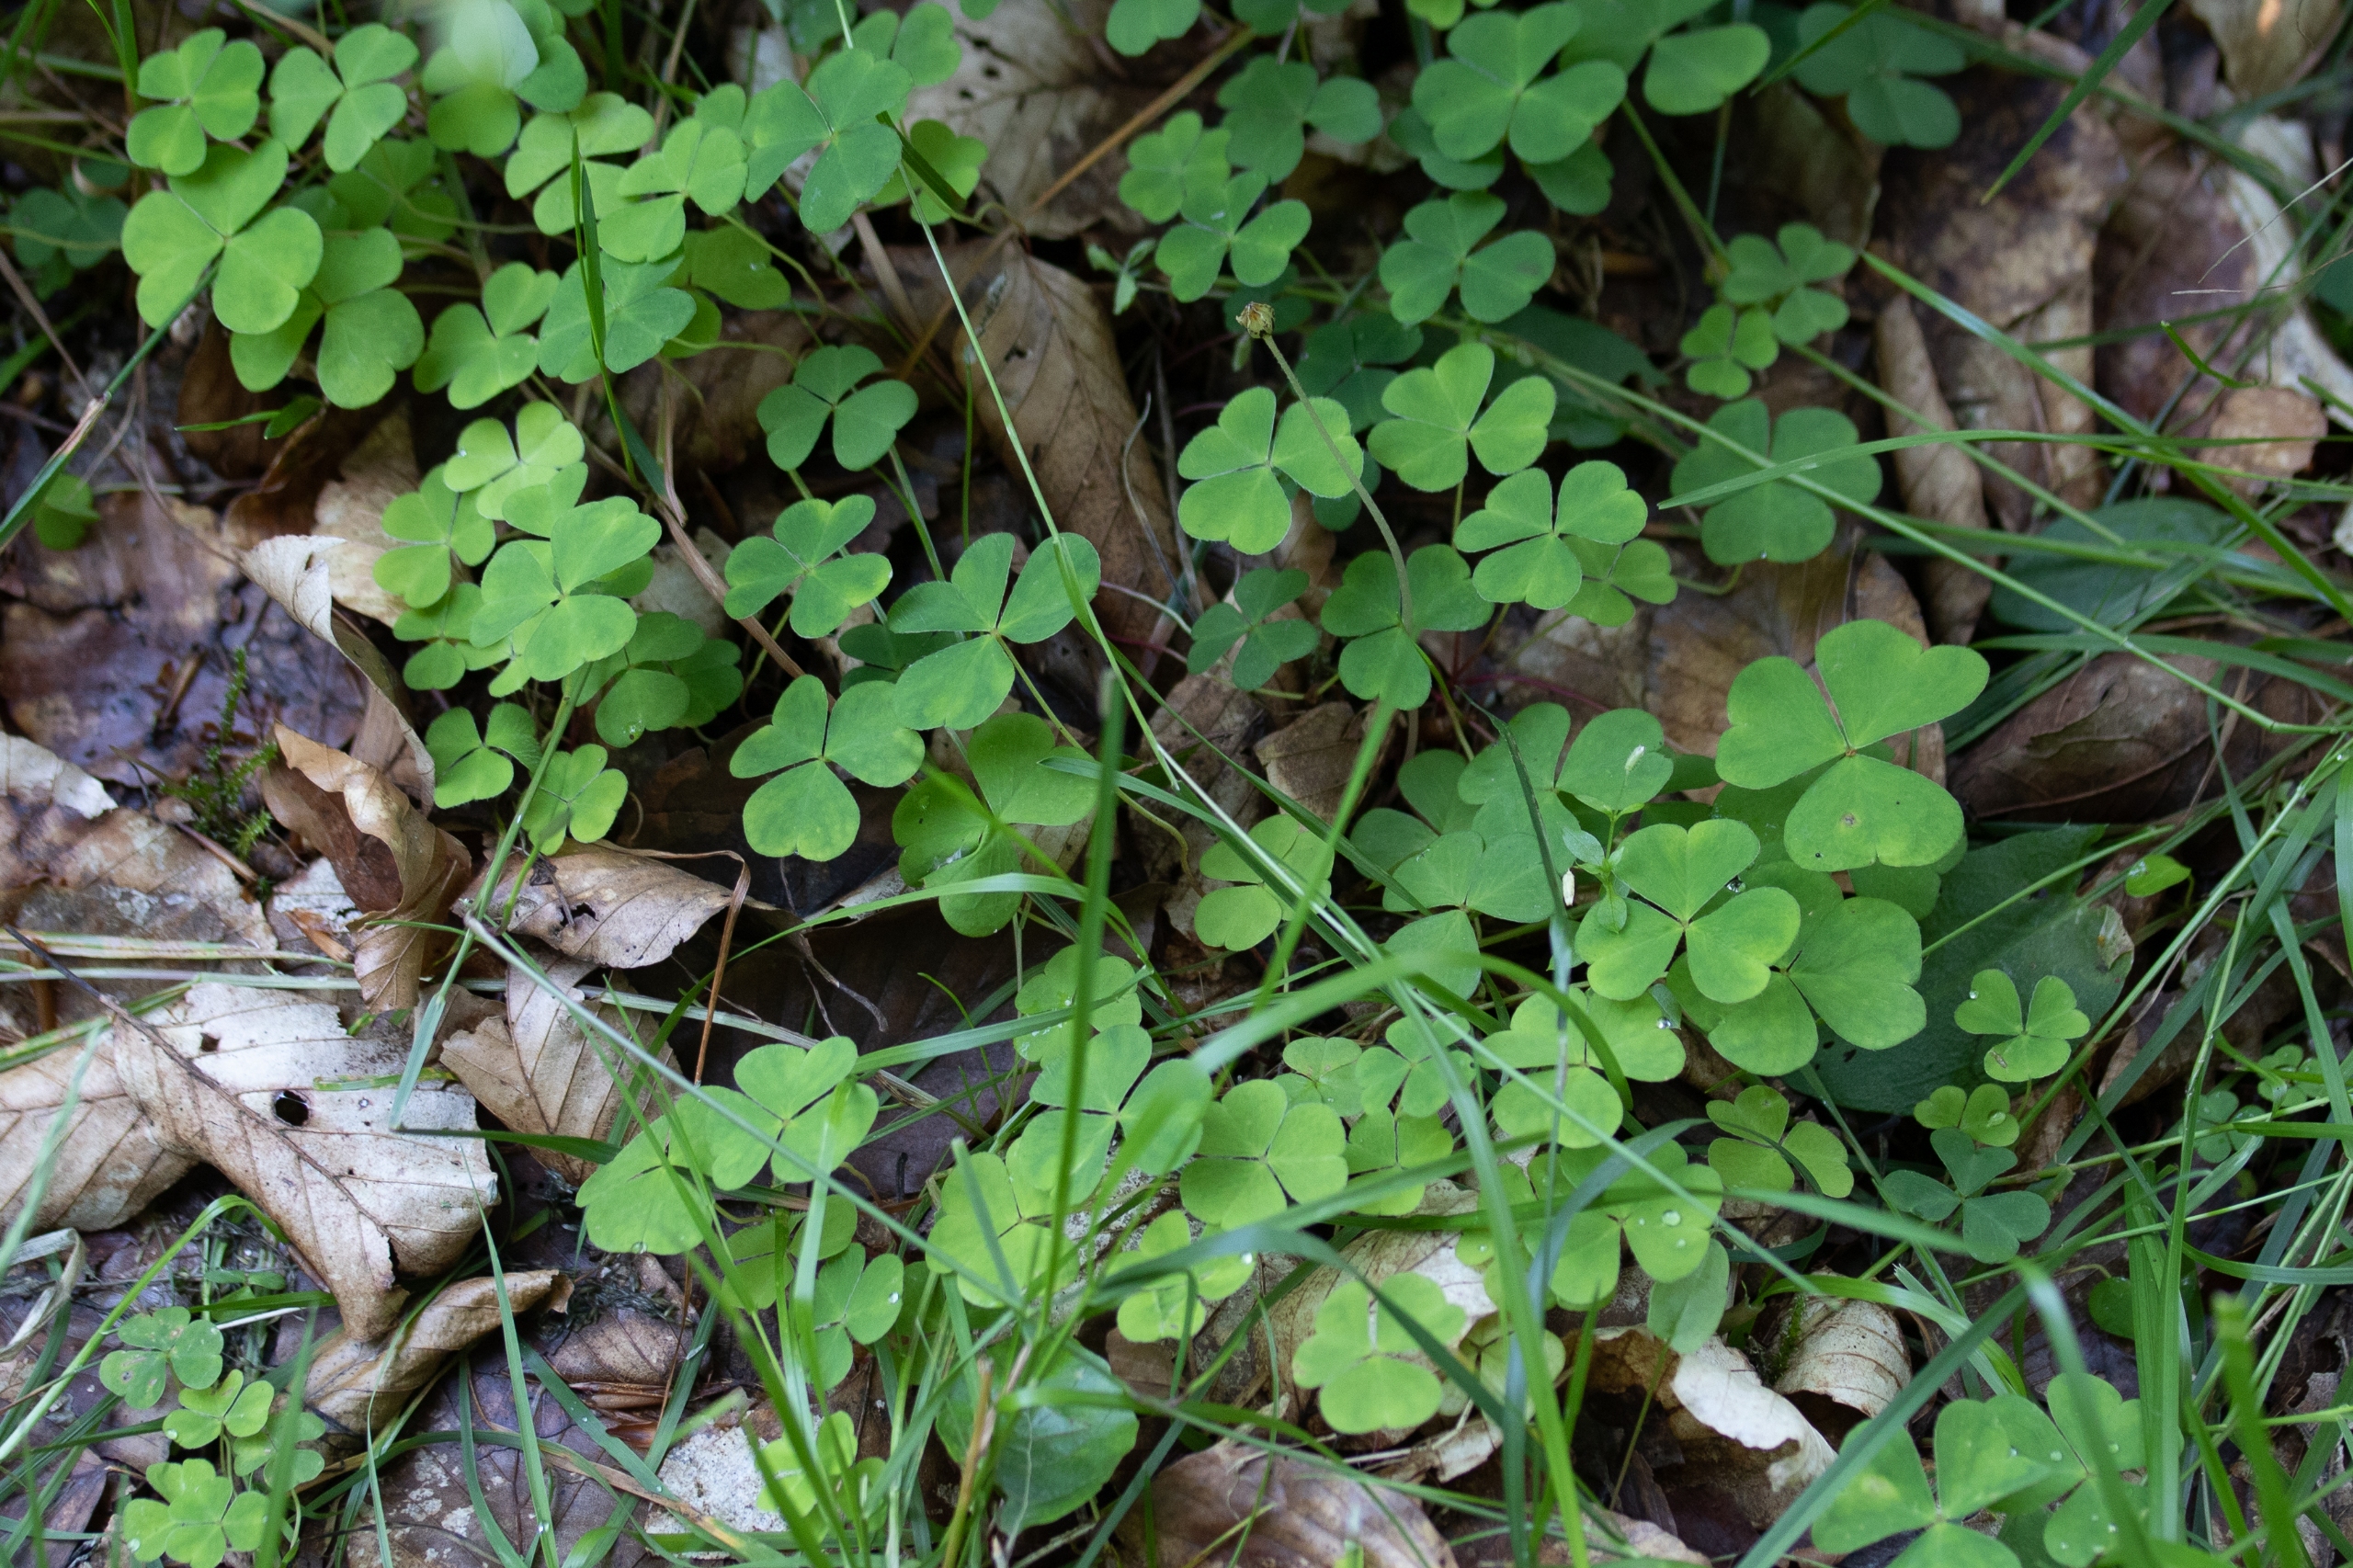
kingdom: Plantae
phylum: Tracheophyta
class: Magnoliopsida
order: Oxalidales
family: Oxalidaceae
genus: Oxalis
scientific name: Oxalis acetosella
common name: Skovsyre
